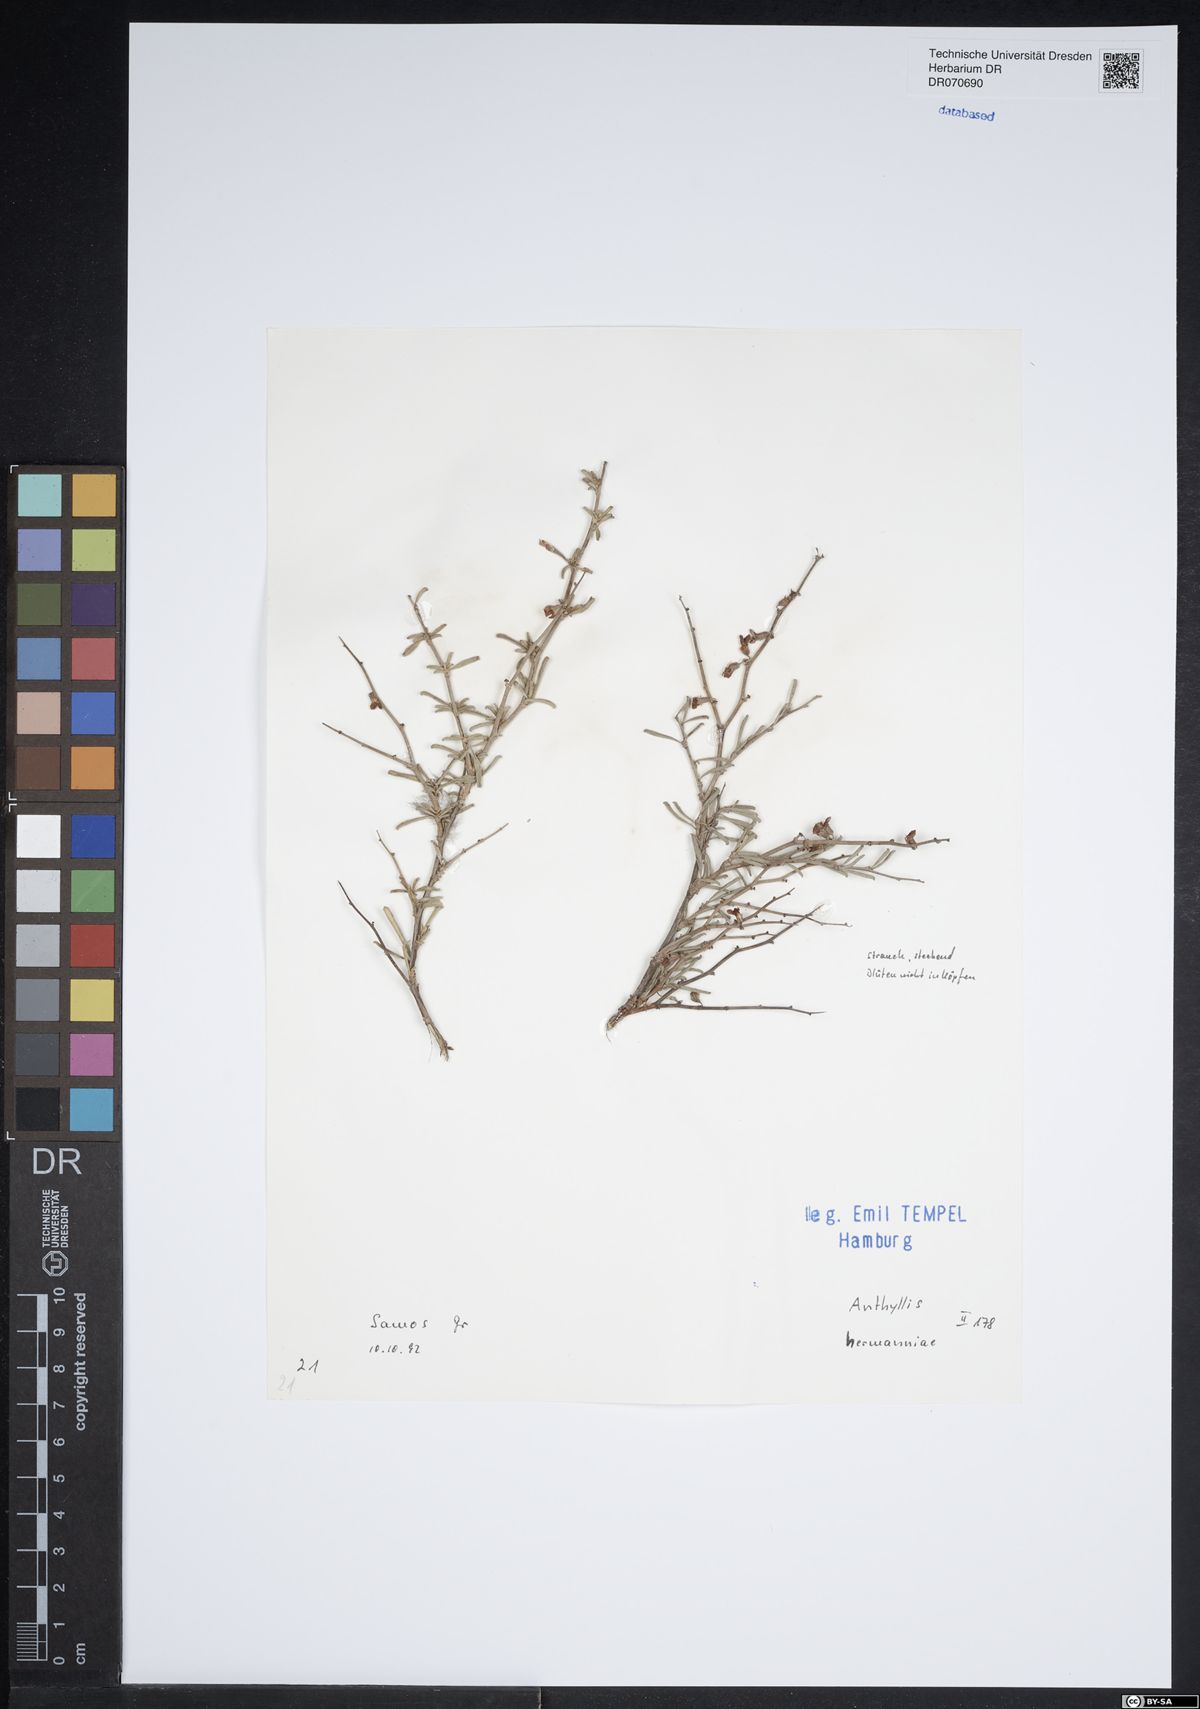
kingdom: Plantae
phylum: Tracheophyta
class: Magnoliopsida
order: Fabales
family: Fabaceae
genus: Anthyllis
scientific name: Anthyllis hermanniae
